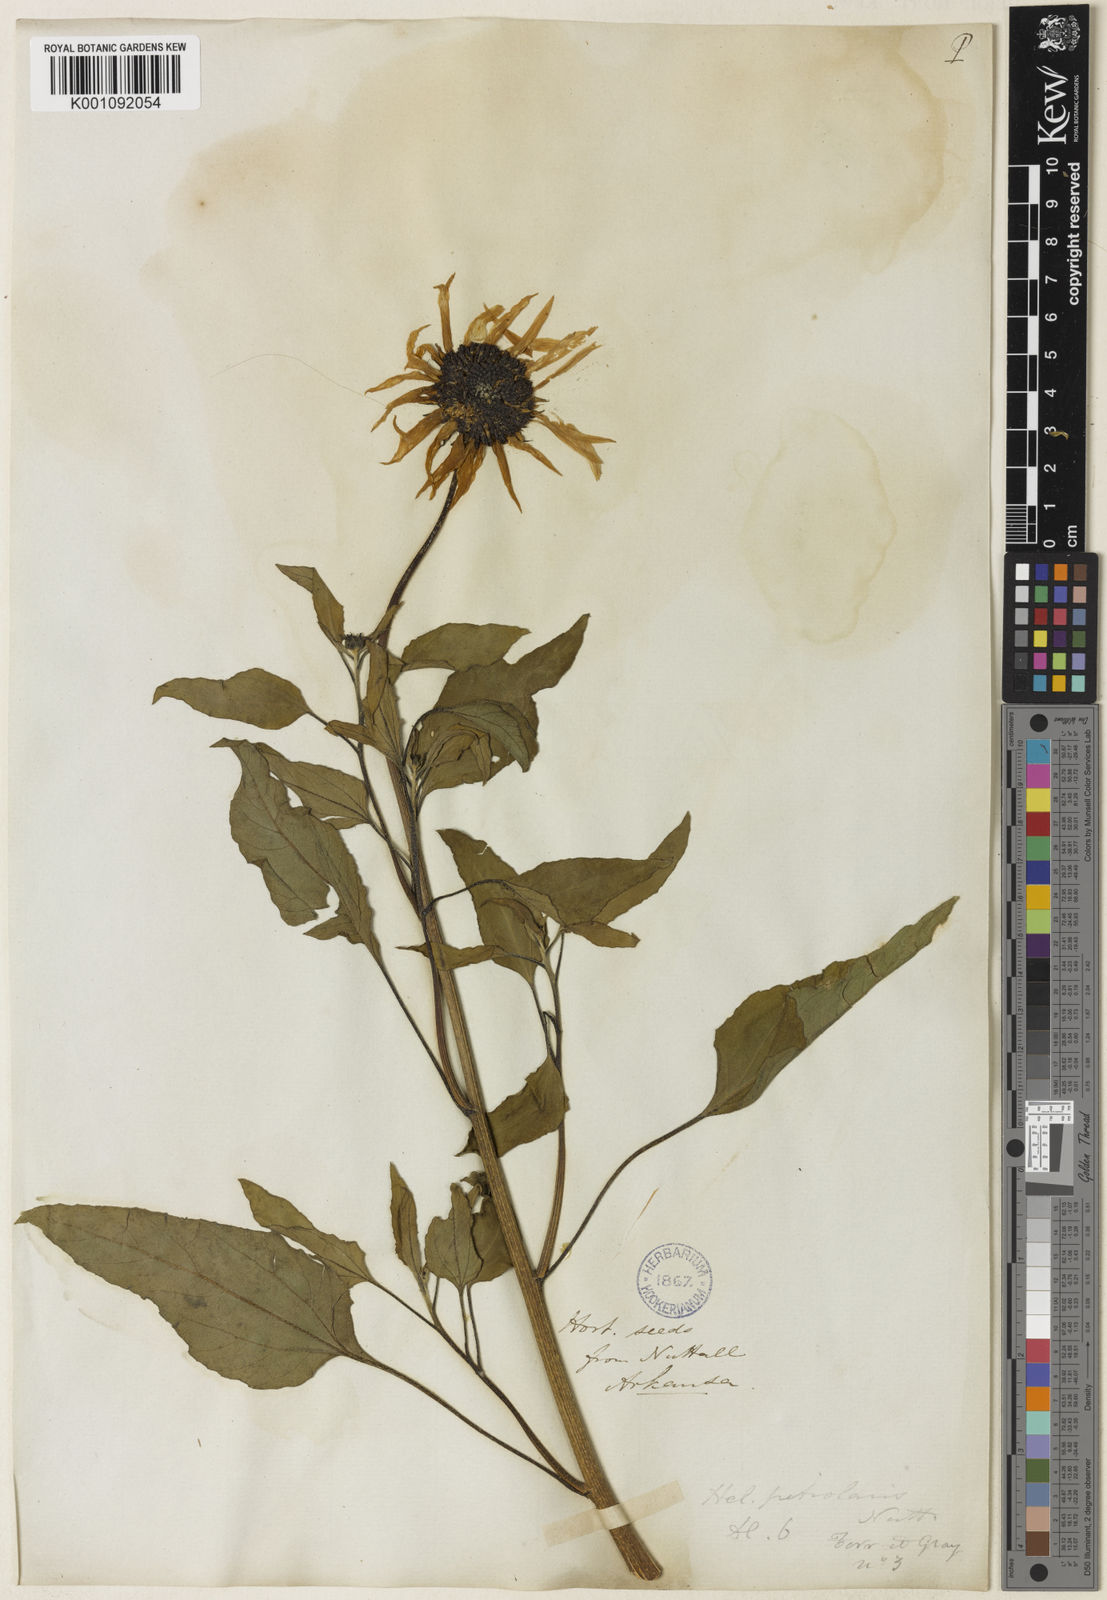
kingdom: Plantae
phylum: Tracheophyta
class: Magnoliopsida
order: Asterales
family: Asteraceae
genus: Helianthus
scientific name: Helianthus petiolaris
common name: Lesser sunflower
